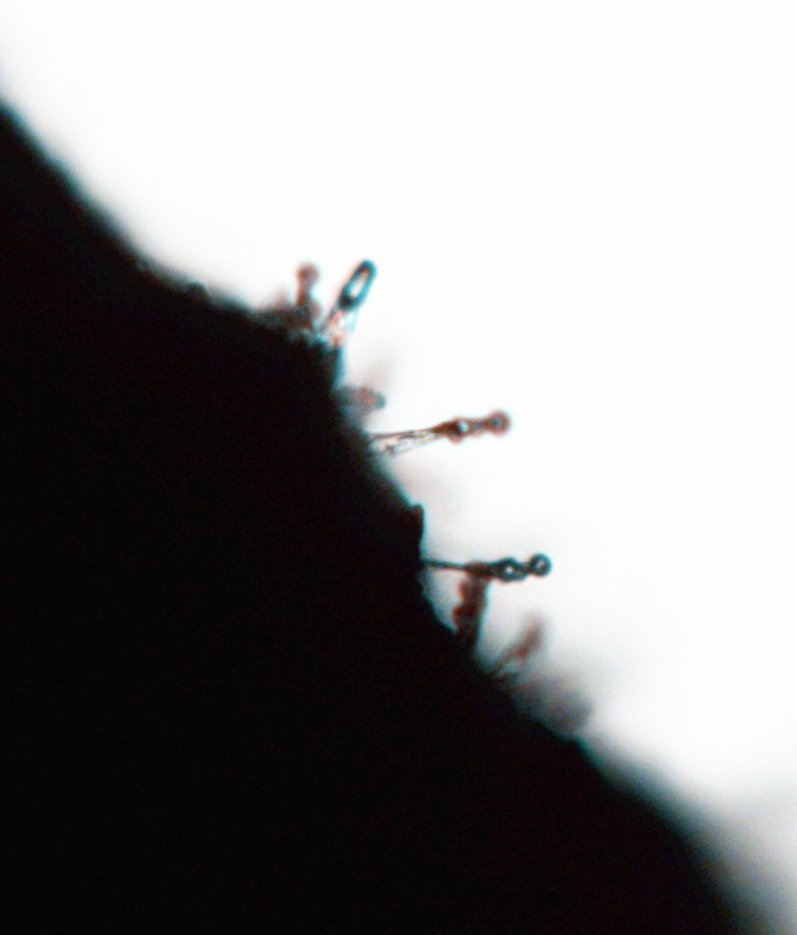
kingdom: Fungi
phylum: Basidiomycota
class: Agaricomycetes
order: Agaricales
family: Psathyrellaceae
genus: Coprinellus
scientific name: Coprinellus
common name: blækhat
